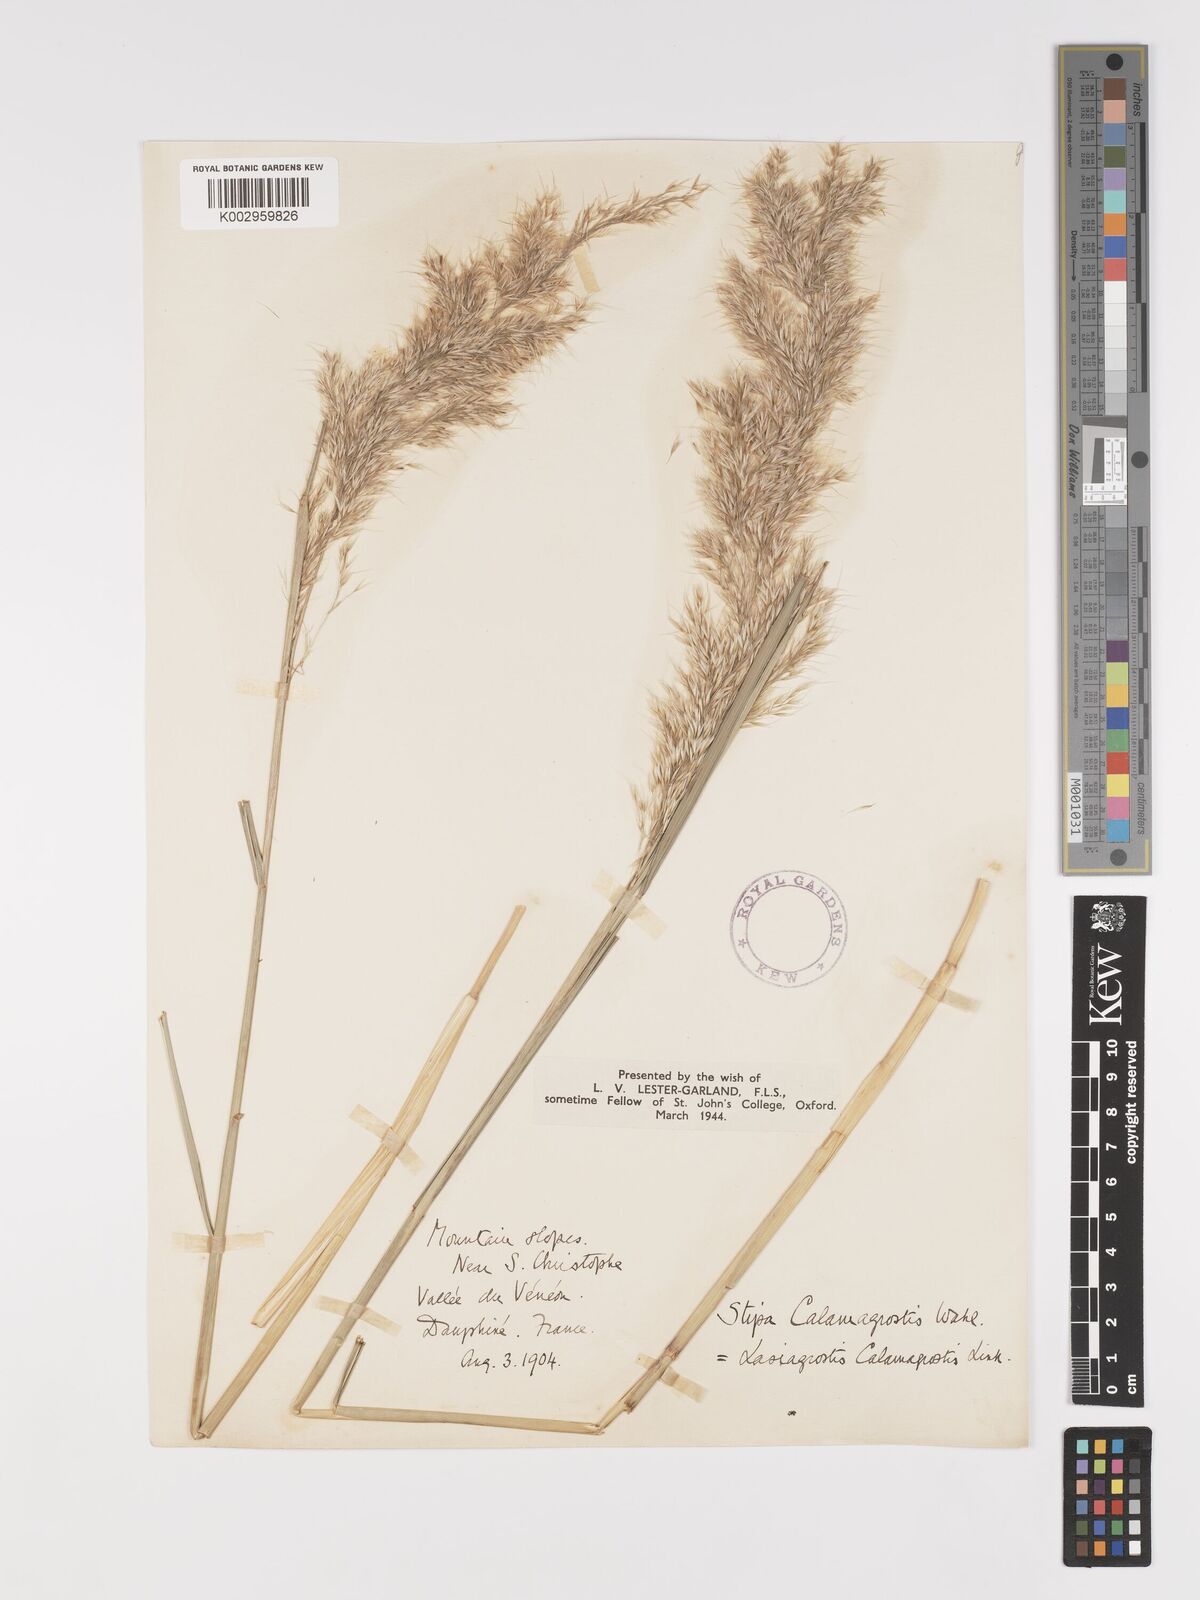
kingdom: Plantae
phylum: Tracheophyta
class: Liliopsida
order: Poales
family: Poaceae
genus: Achnatherum
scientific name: Achnatherum calamagrostis
